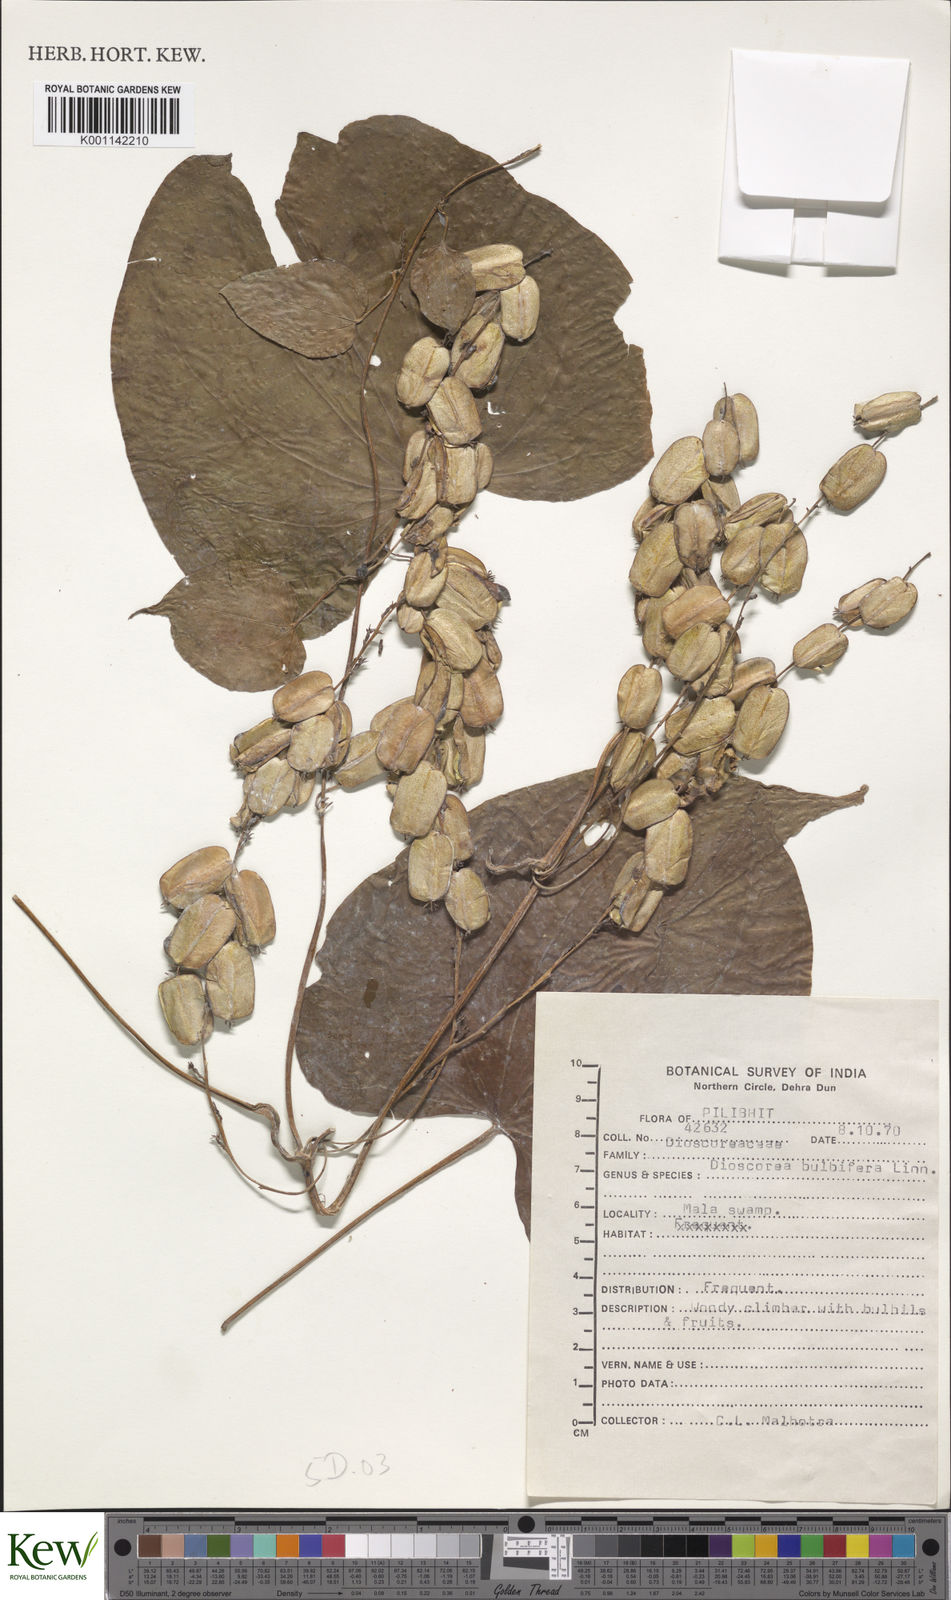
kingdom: Plantae
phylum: Tracheophyta
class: Liliopsida
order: Dioscoreales
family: Dioscoreaceae
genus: Dioscorea
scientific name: Dioscorea bulbifera
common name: Air yam
